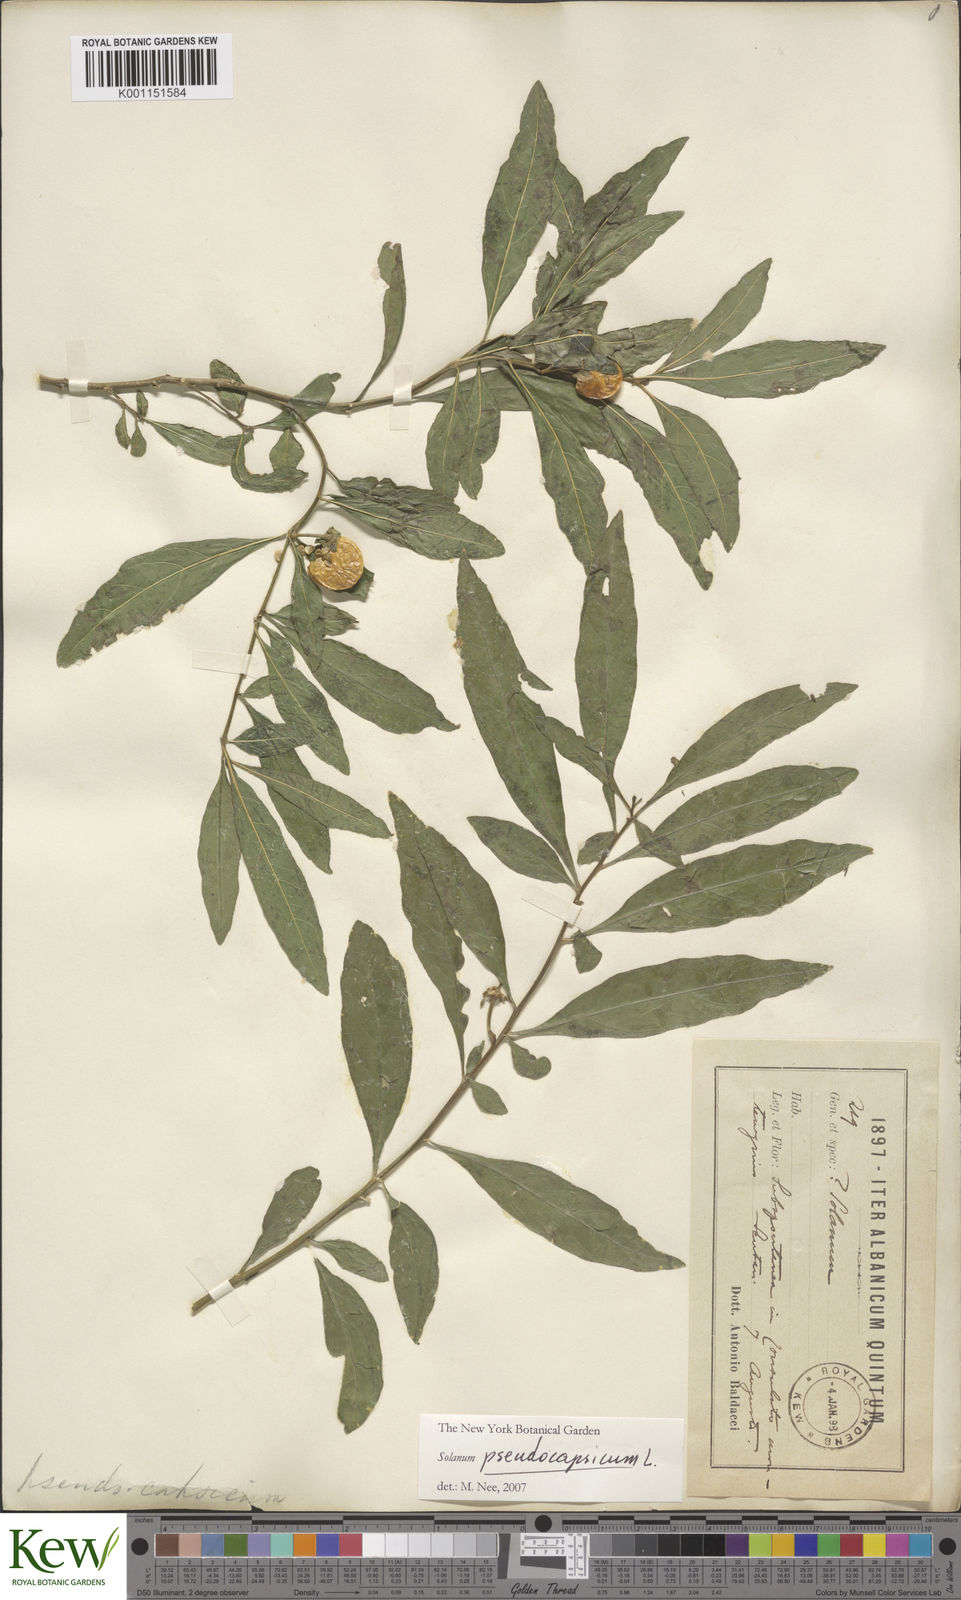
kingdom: Plantae
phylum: Tracheophyta
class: Magnoliopsida
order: Solanales
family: Solanaceae
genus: Solanum
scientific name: Solanum pseudocapsicum
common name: Jerusalem cherry
